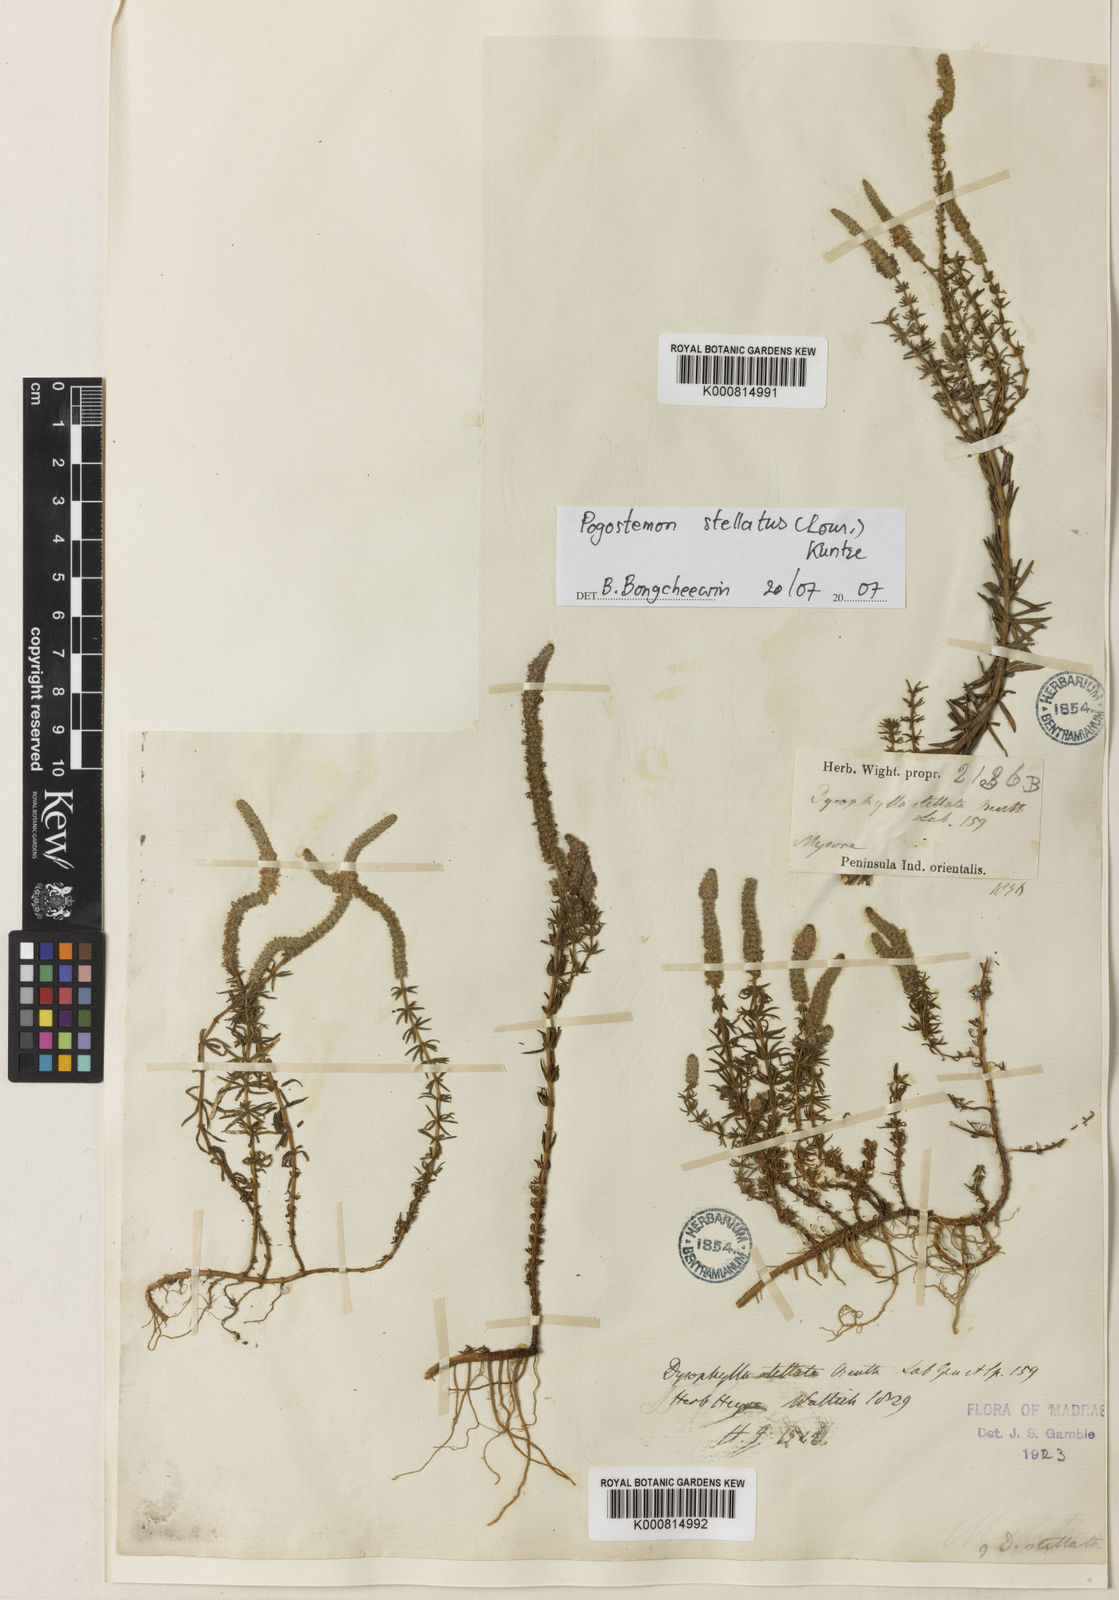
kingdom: Plantae
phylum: Tracheophyta
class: Magnoliopsida
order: Lamiales
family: Lamiaceae
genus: Pogostemon
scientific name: Pogostemon stellatus
